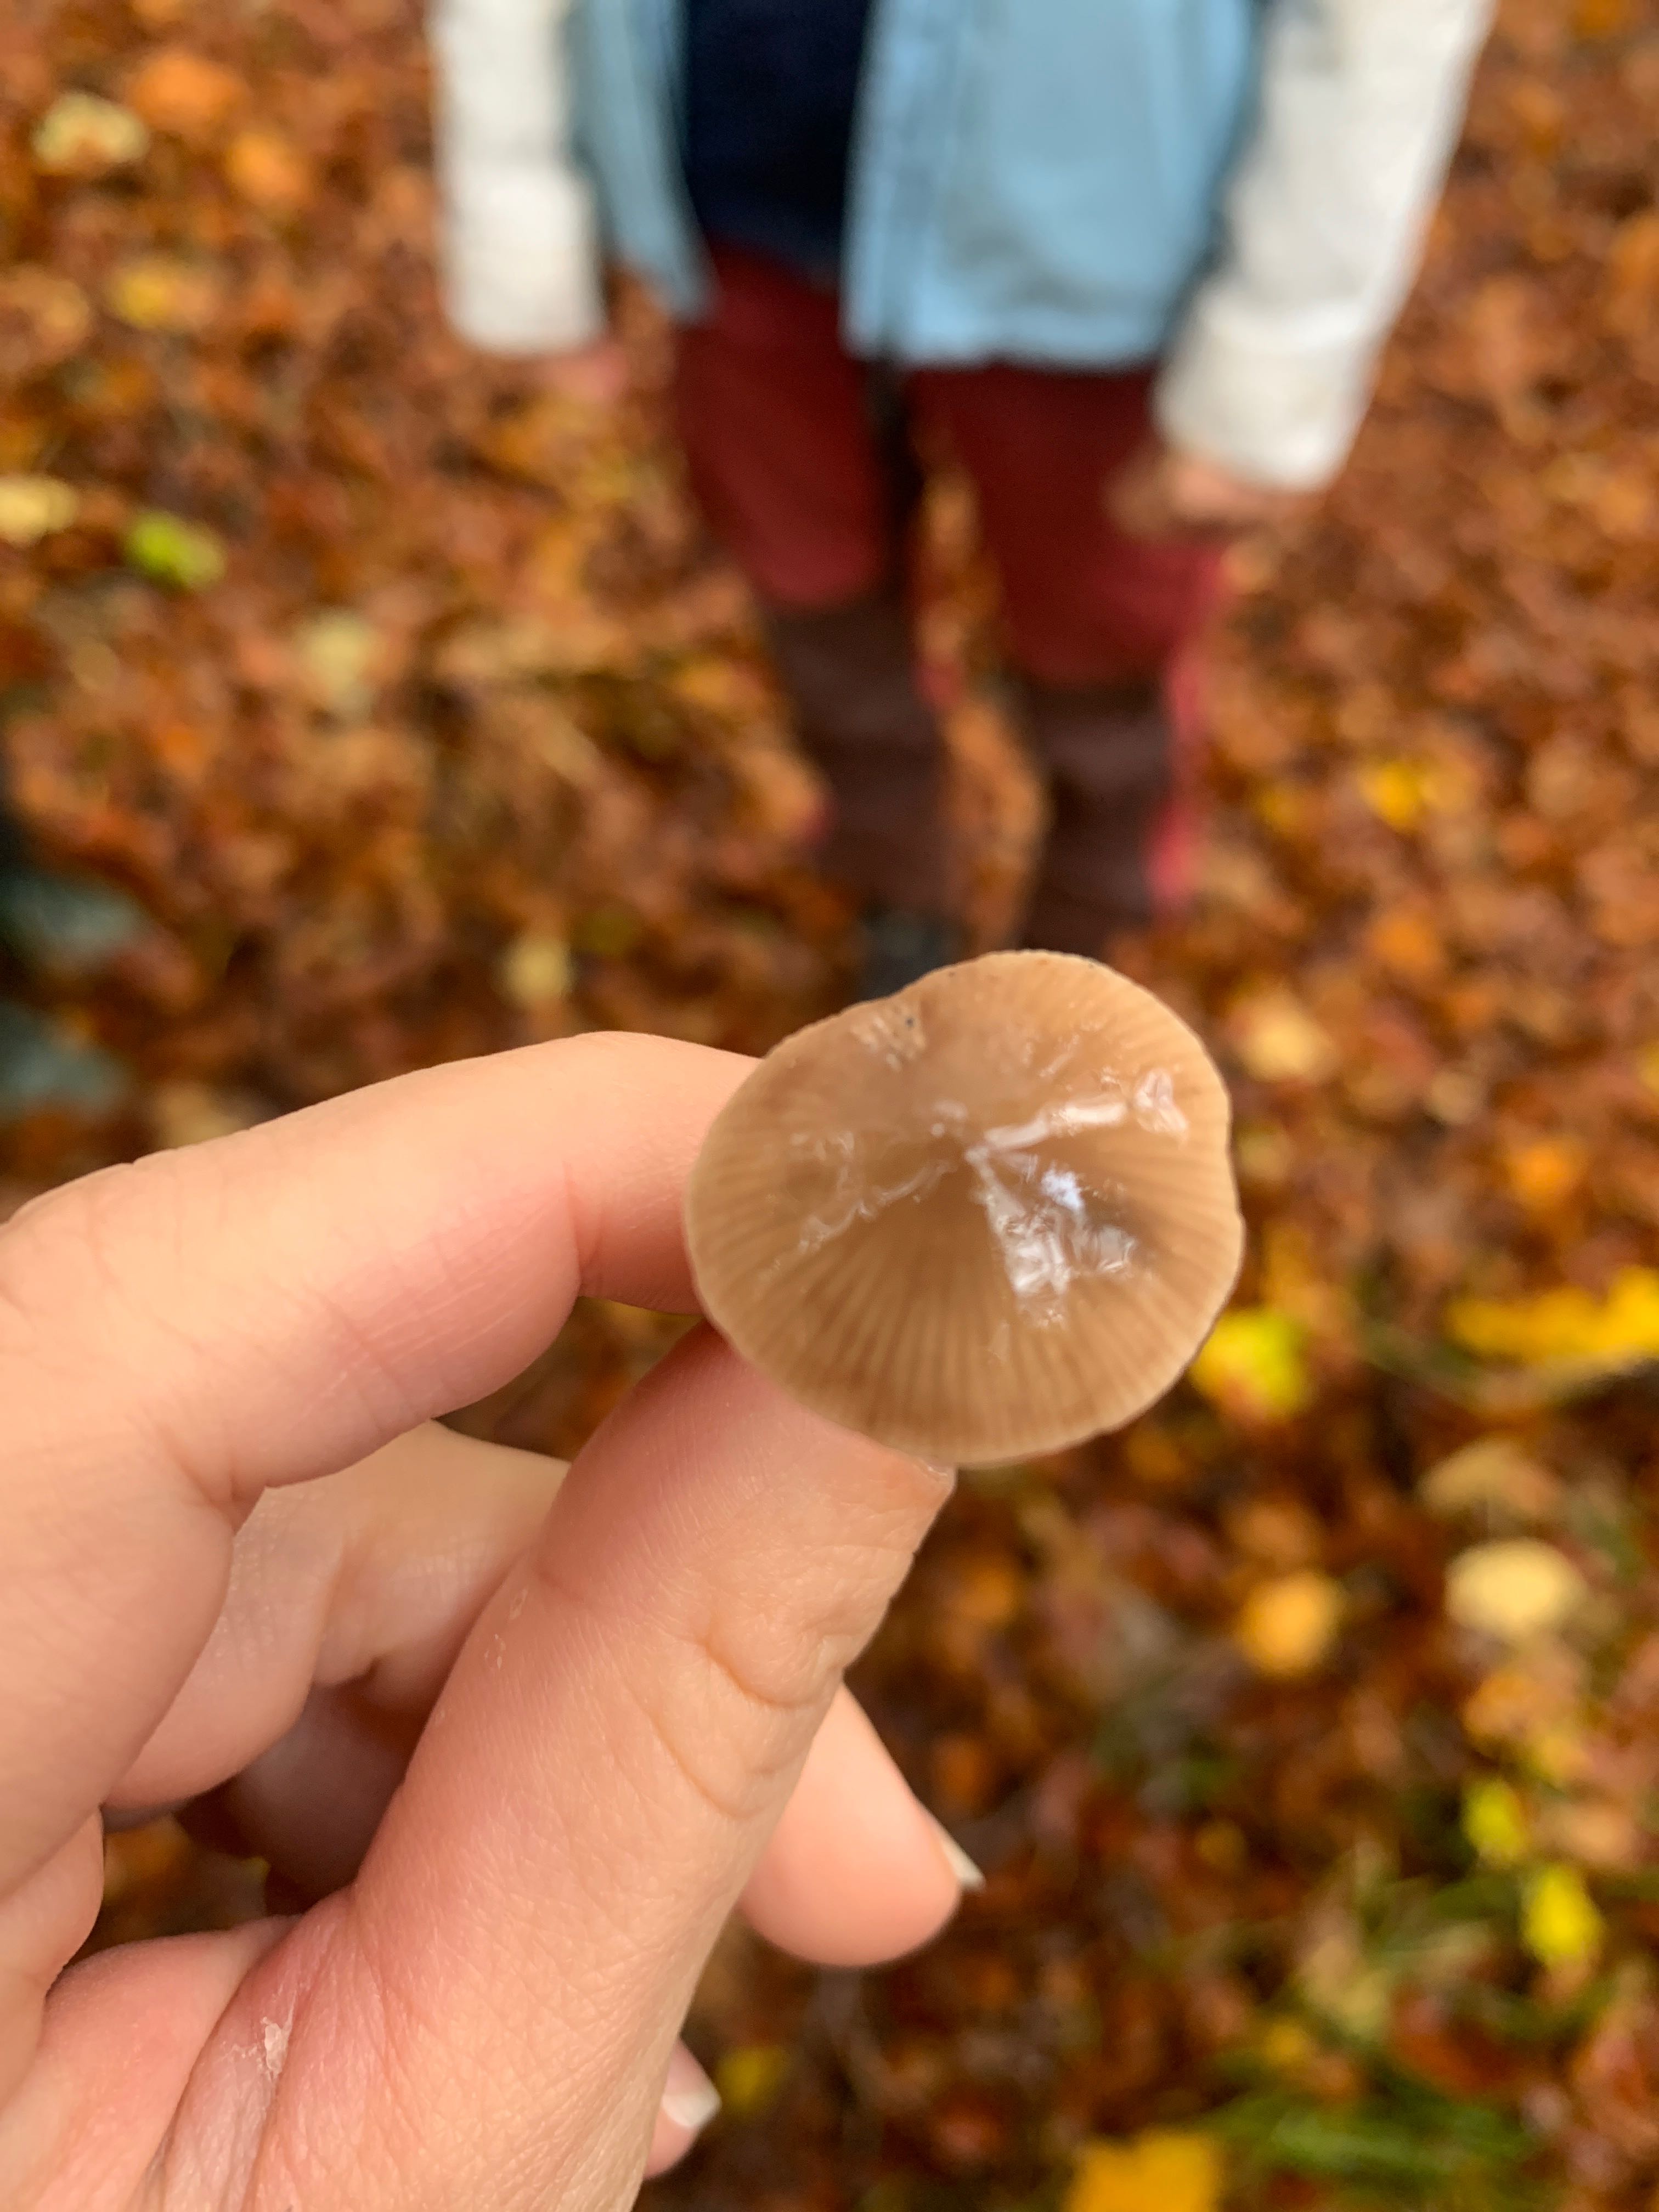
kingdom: Fungi
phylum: Basidiomycota
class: Agaricomycetes
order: Agaricales
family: Omphalotaceae
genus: Mycetinis
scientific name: Mycetinis alliaceus
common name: stor løghat
